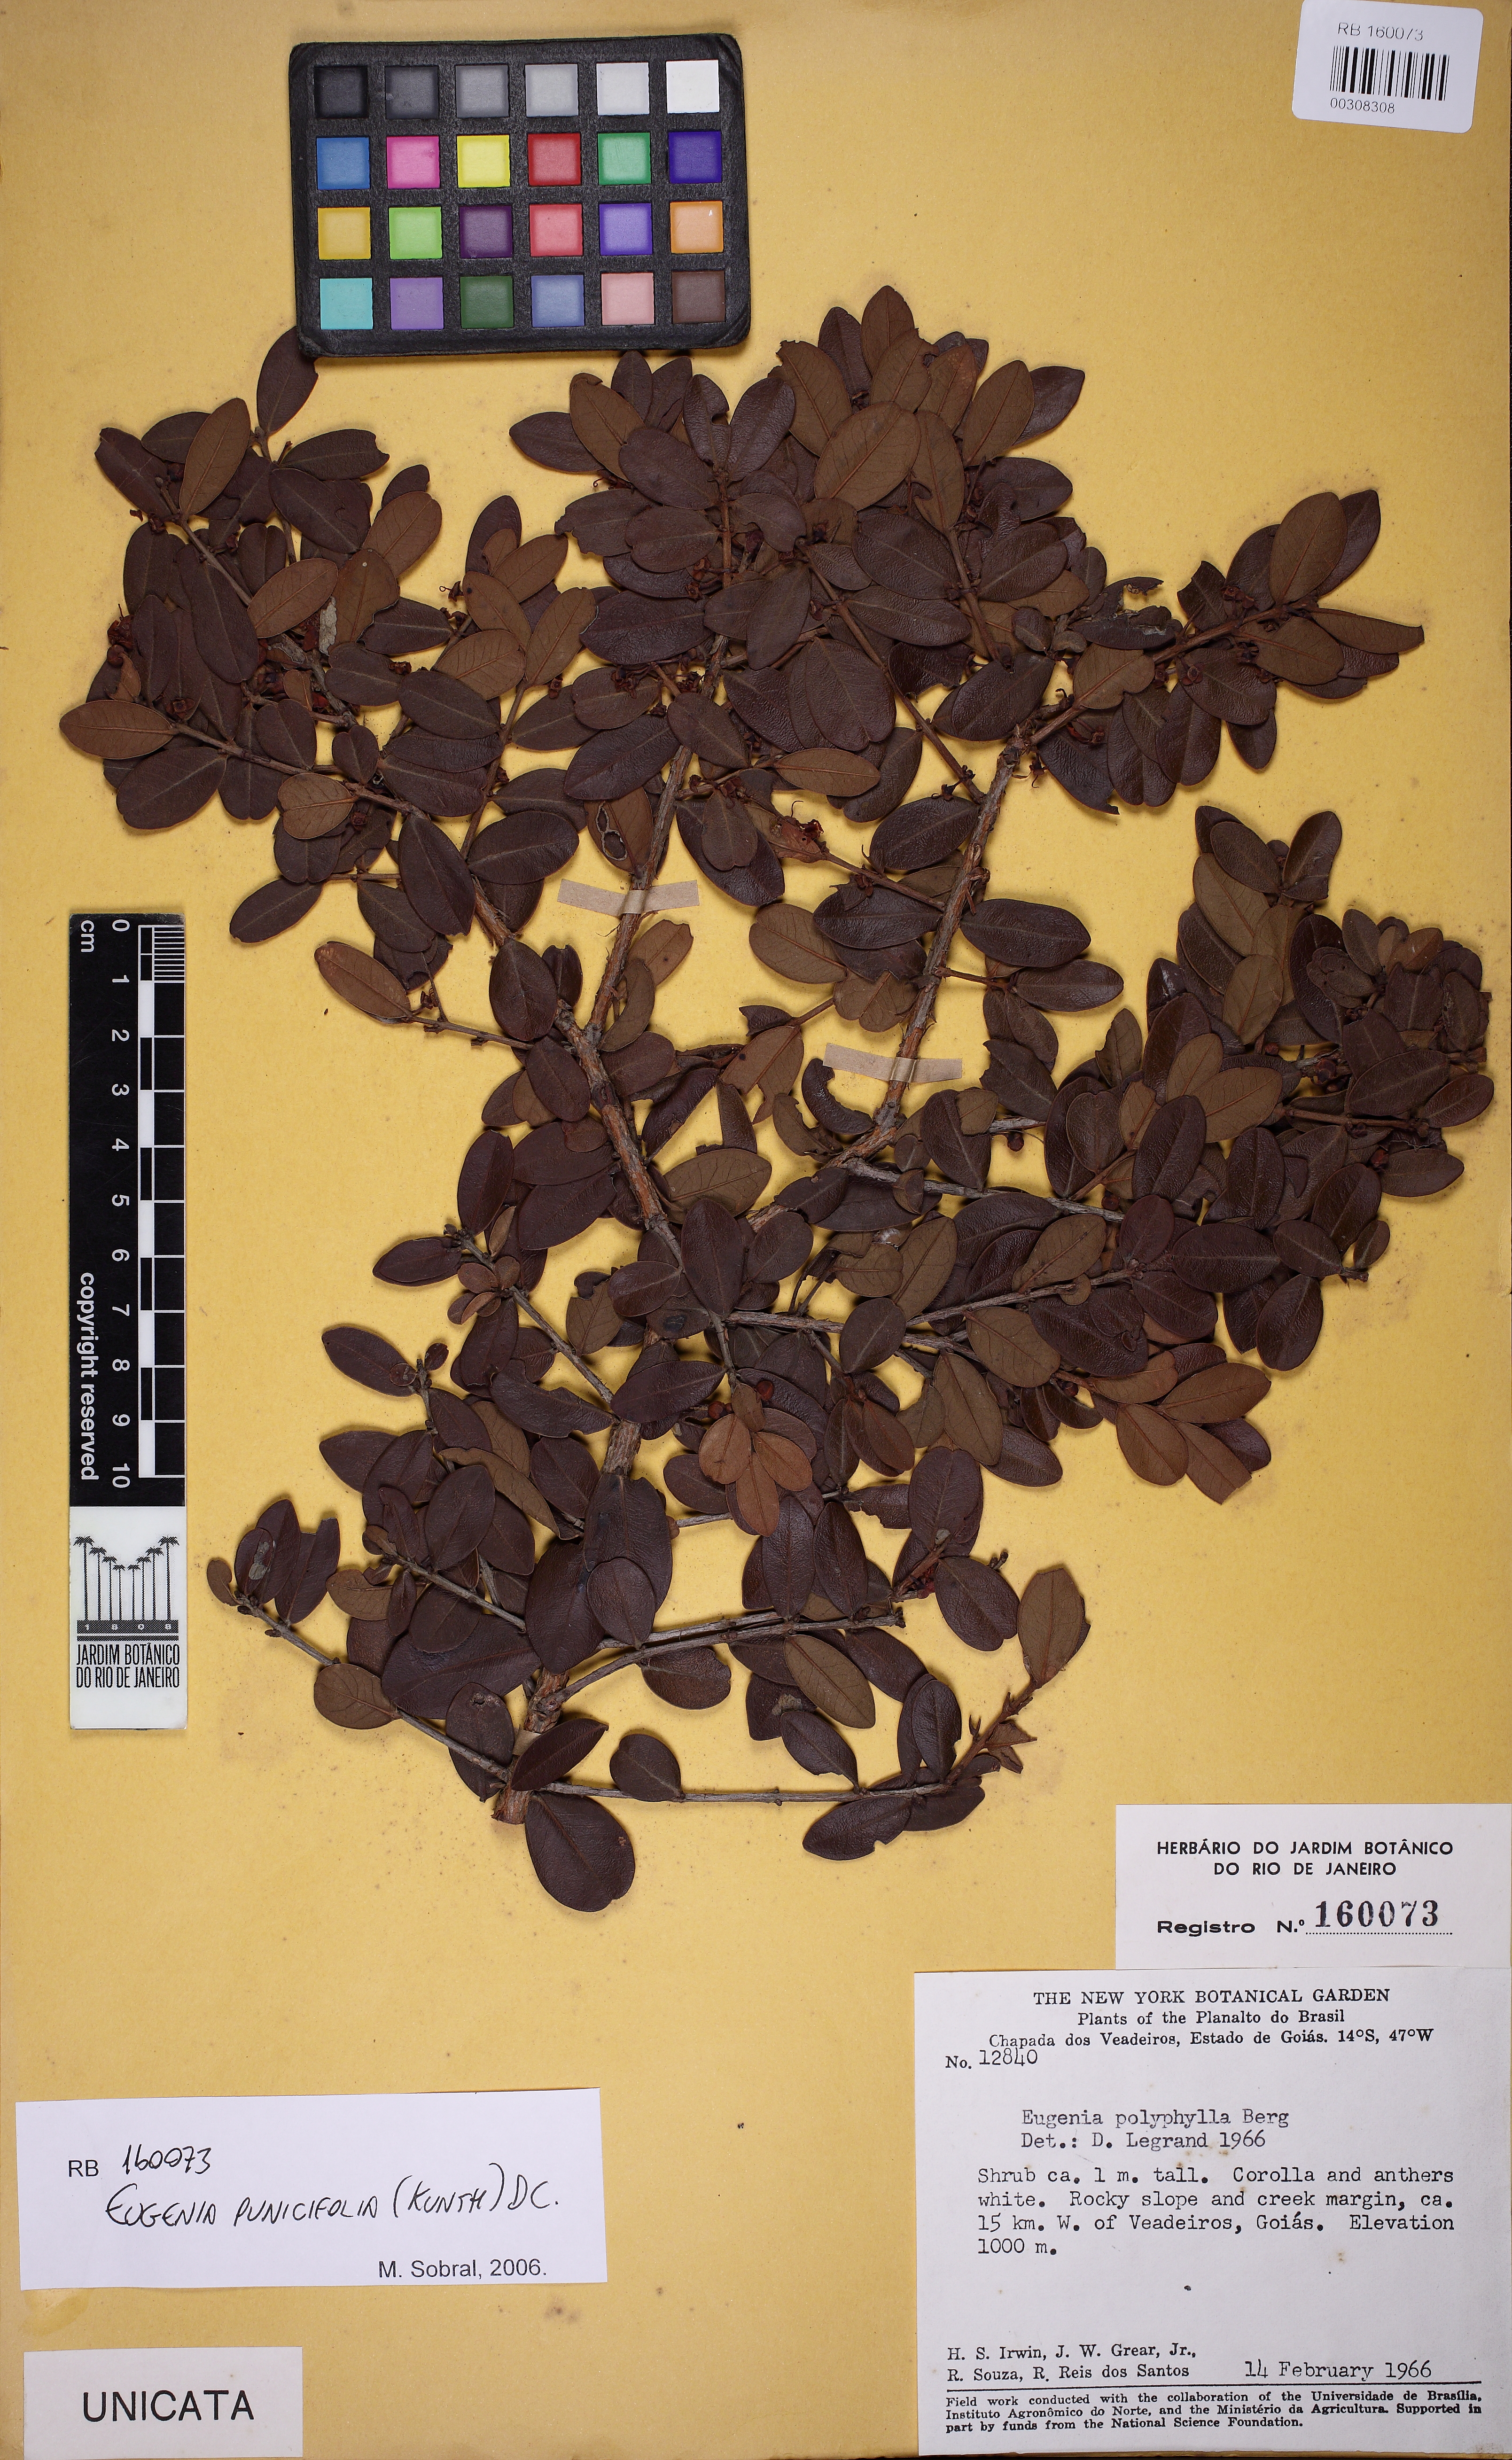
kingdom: Plantae
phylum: Tracheophyta
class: Magnoliopsida
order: Myrtales
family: Myrtaceae
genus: Eugenia
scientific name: Eugenia punicifolia
